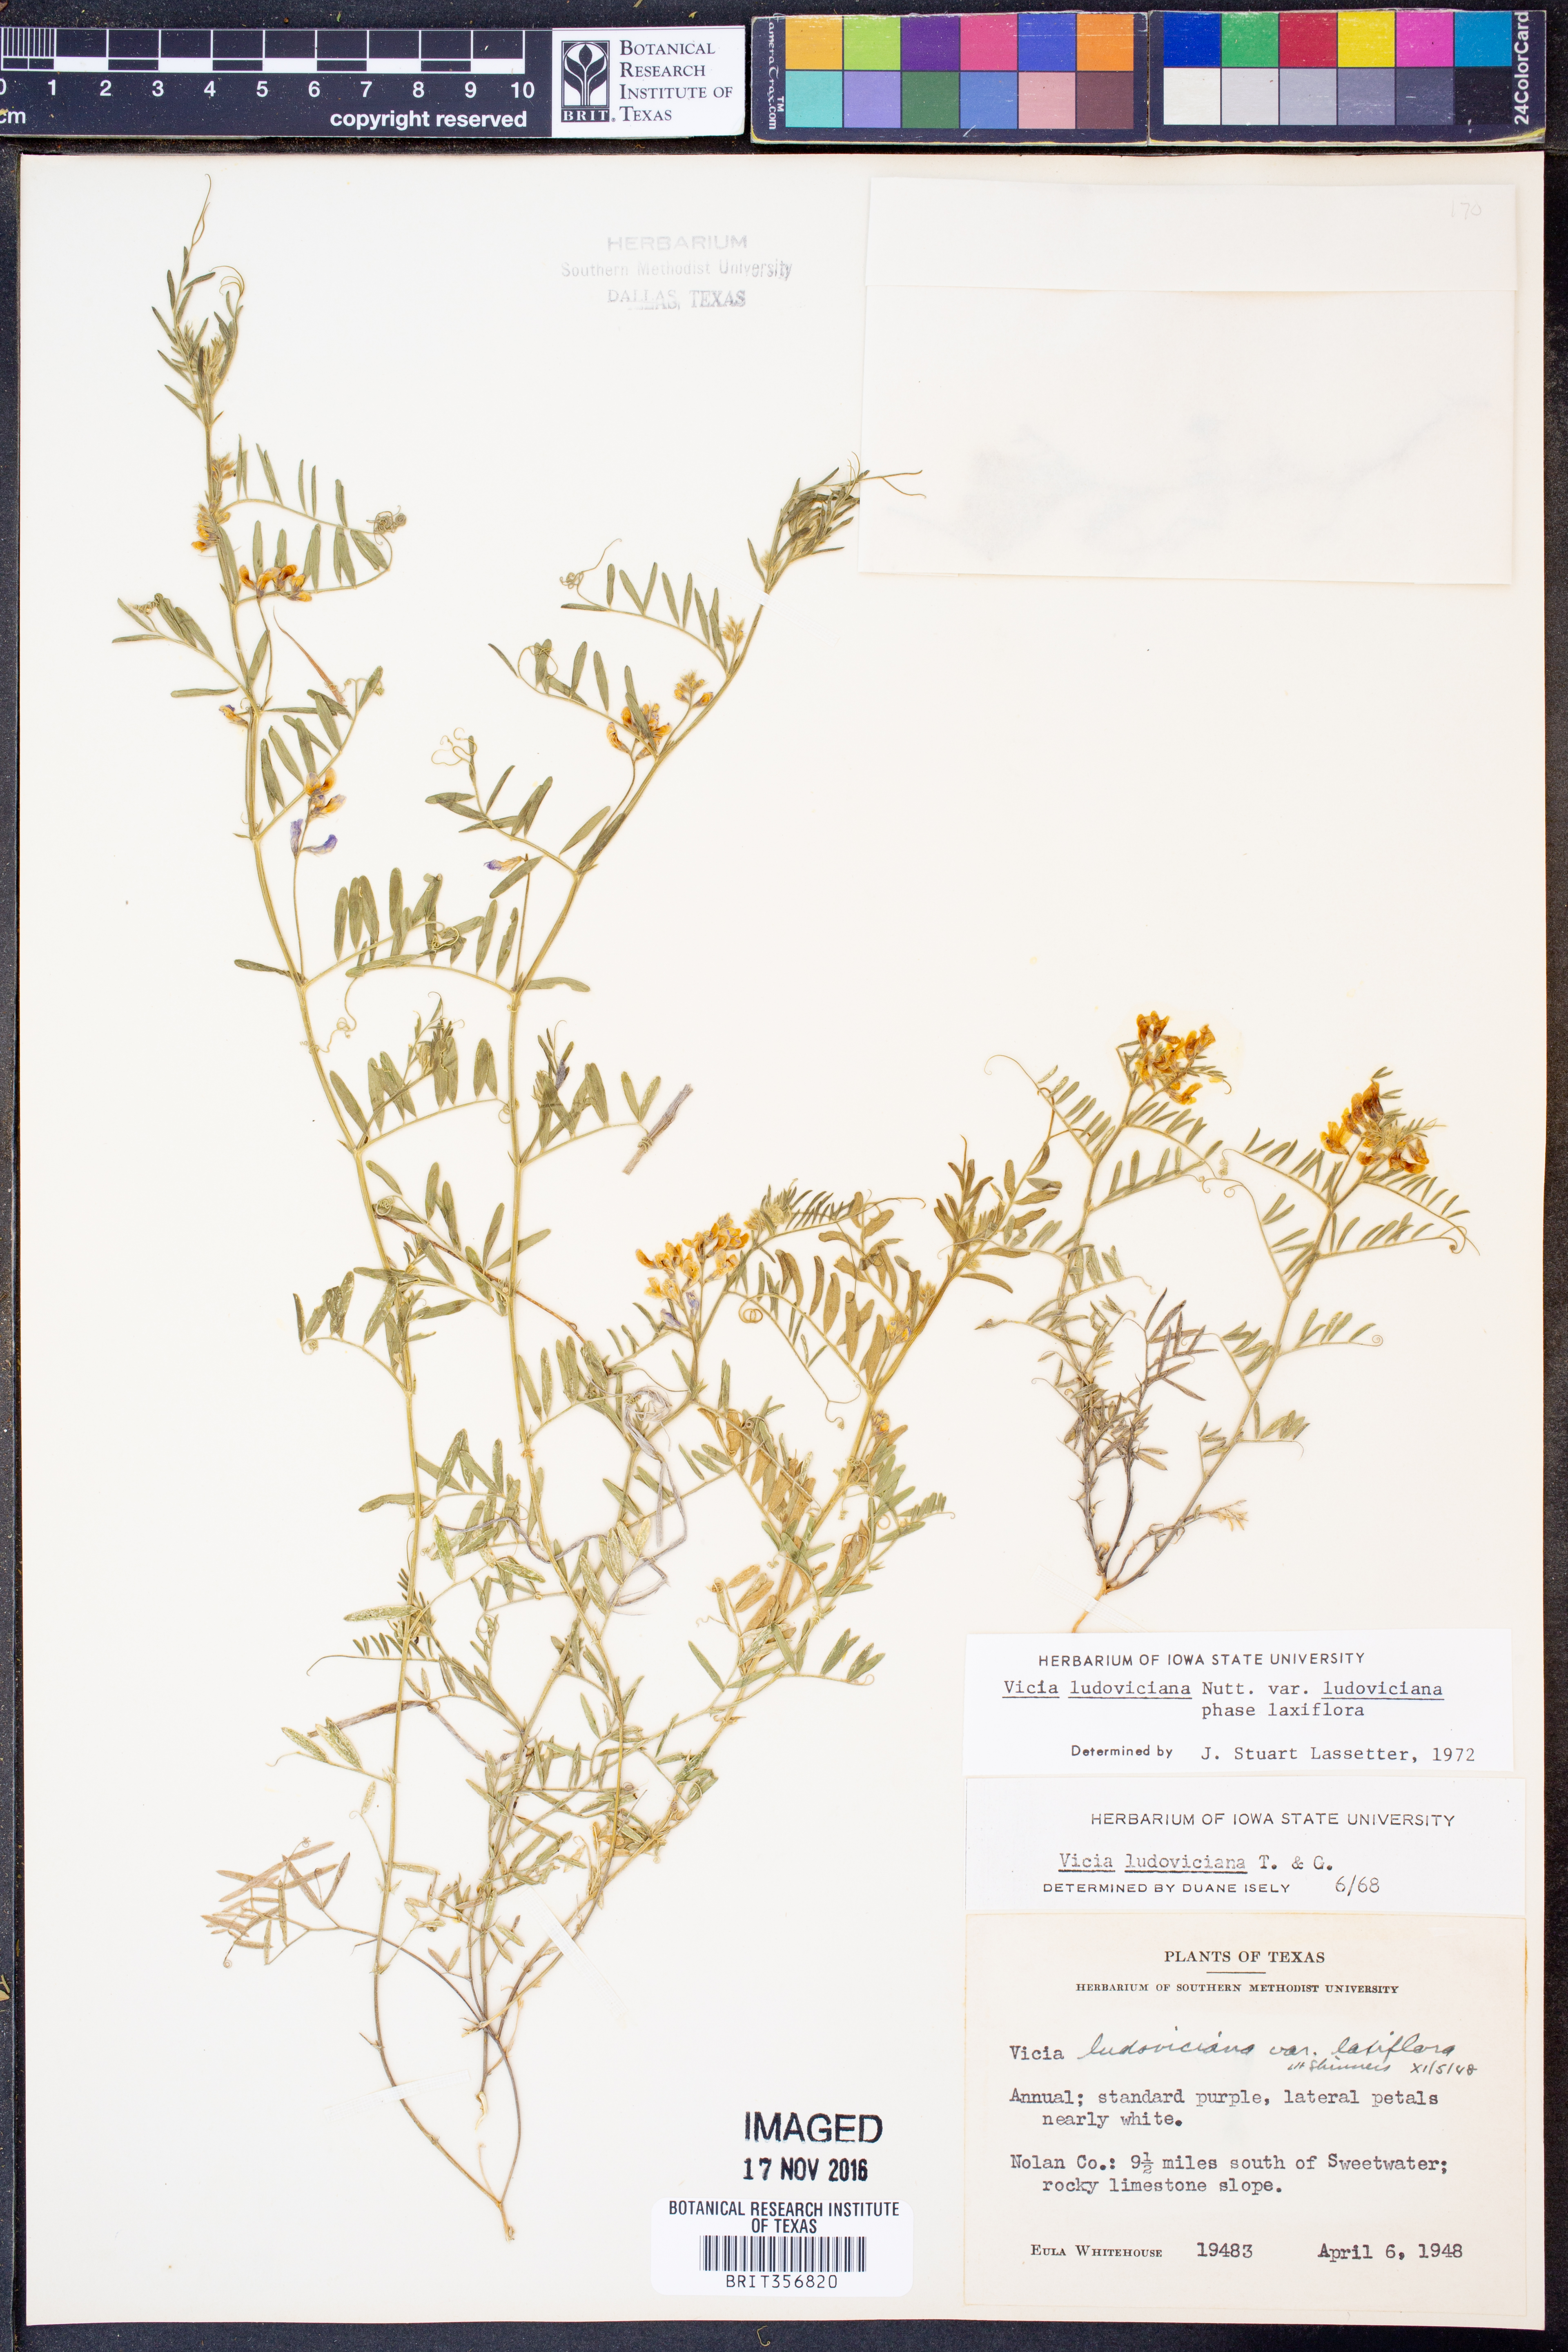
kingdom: Plantae
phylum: Tracheophyta
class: Magnoliopsida
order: Fabales
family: Fabaceae
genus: Vicia
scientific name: Vicia ludoviciana
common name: Louisiana vetch
